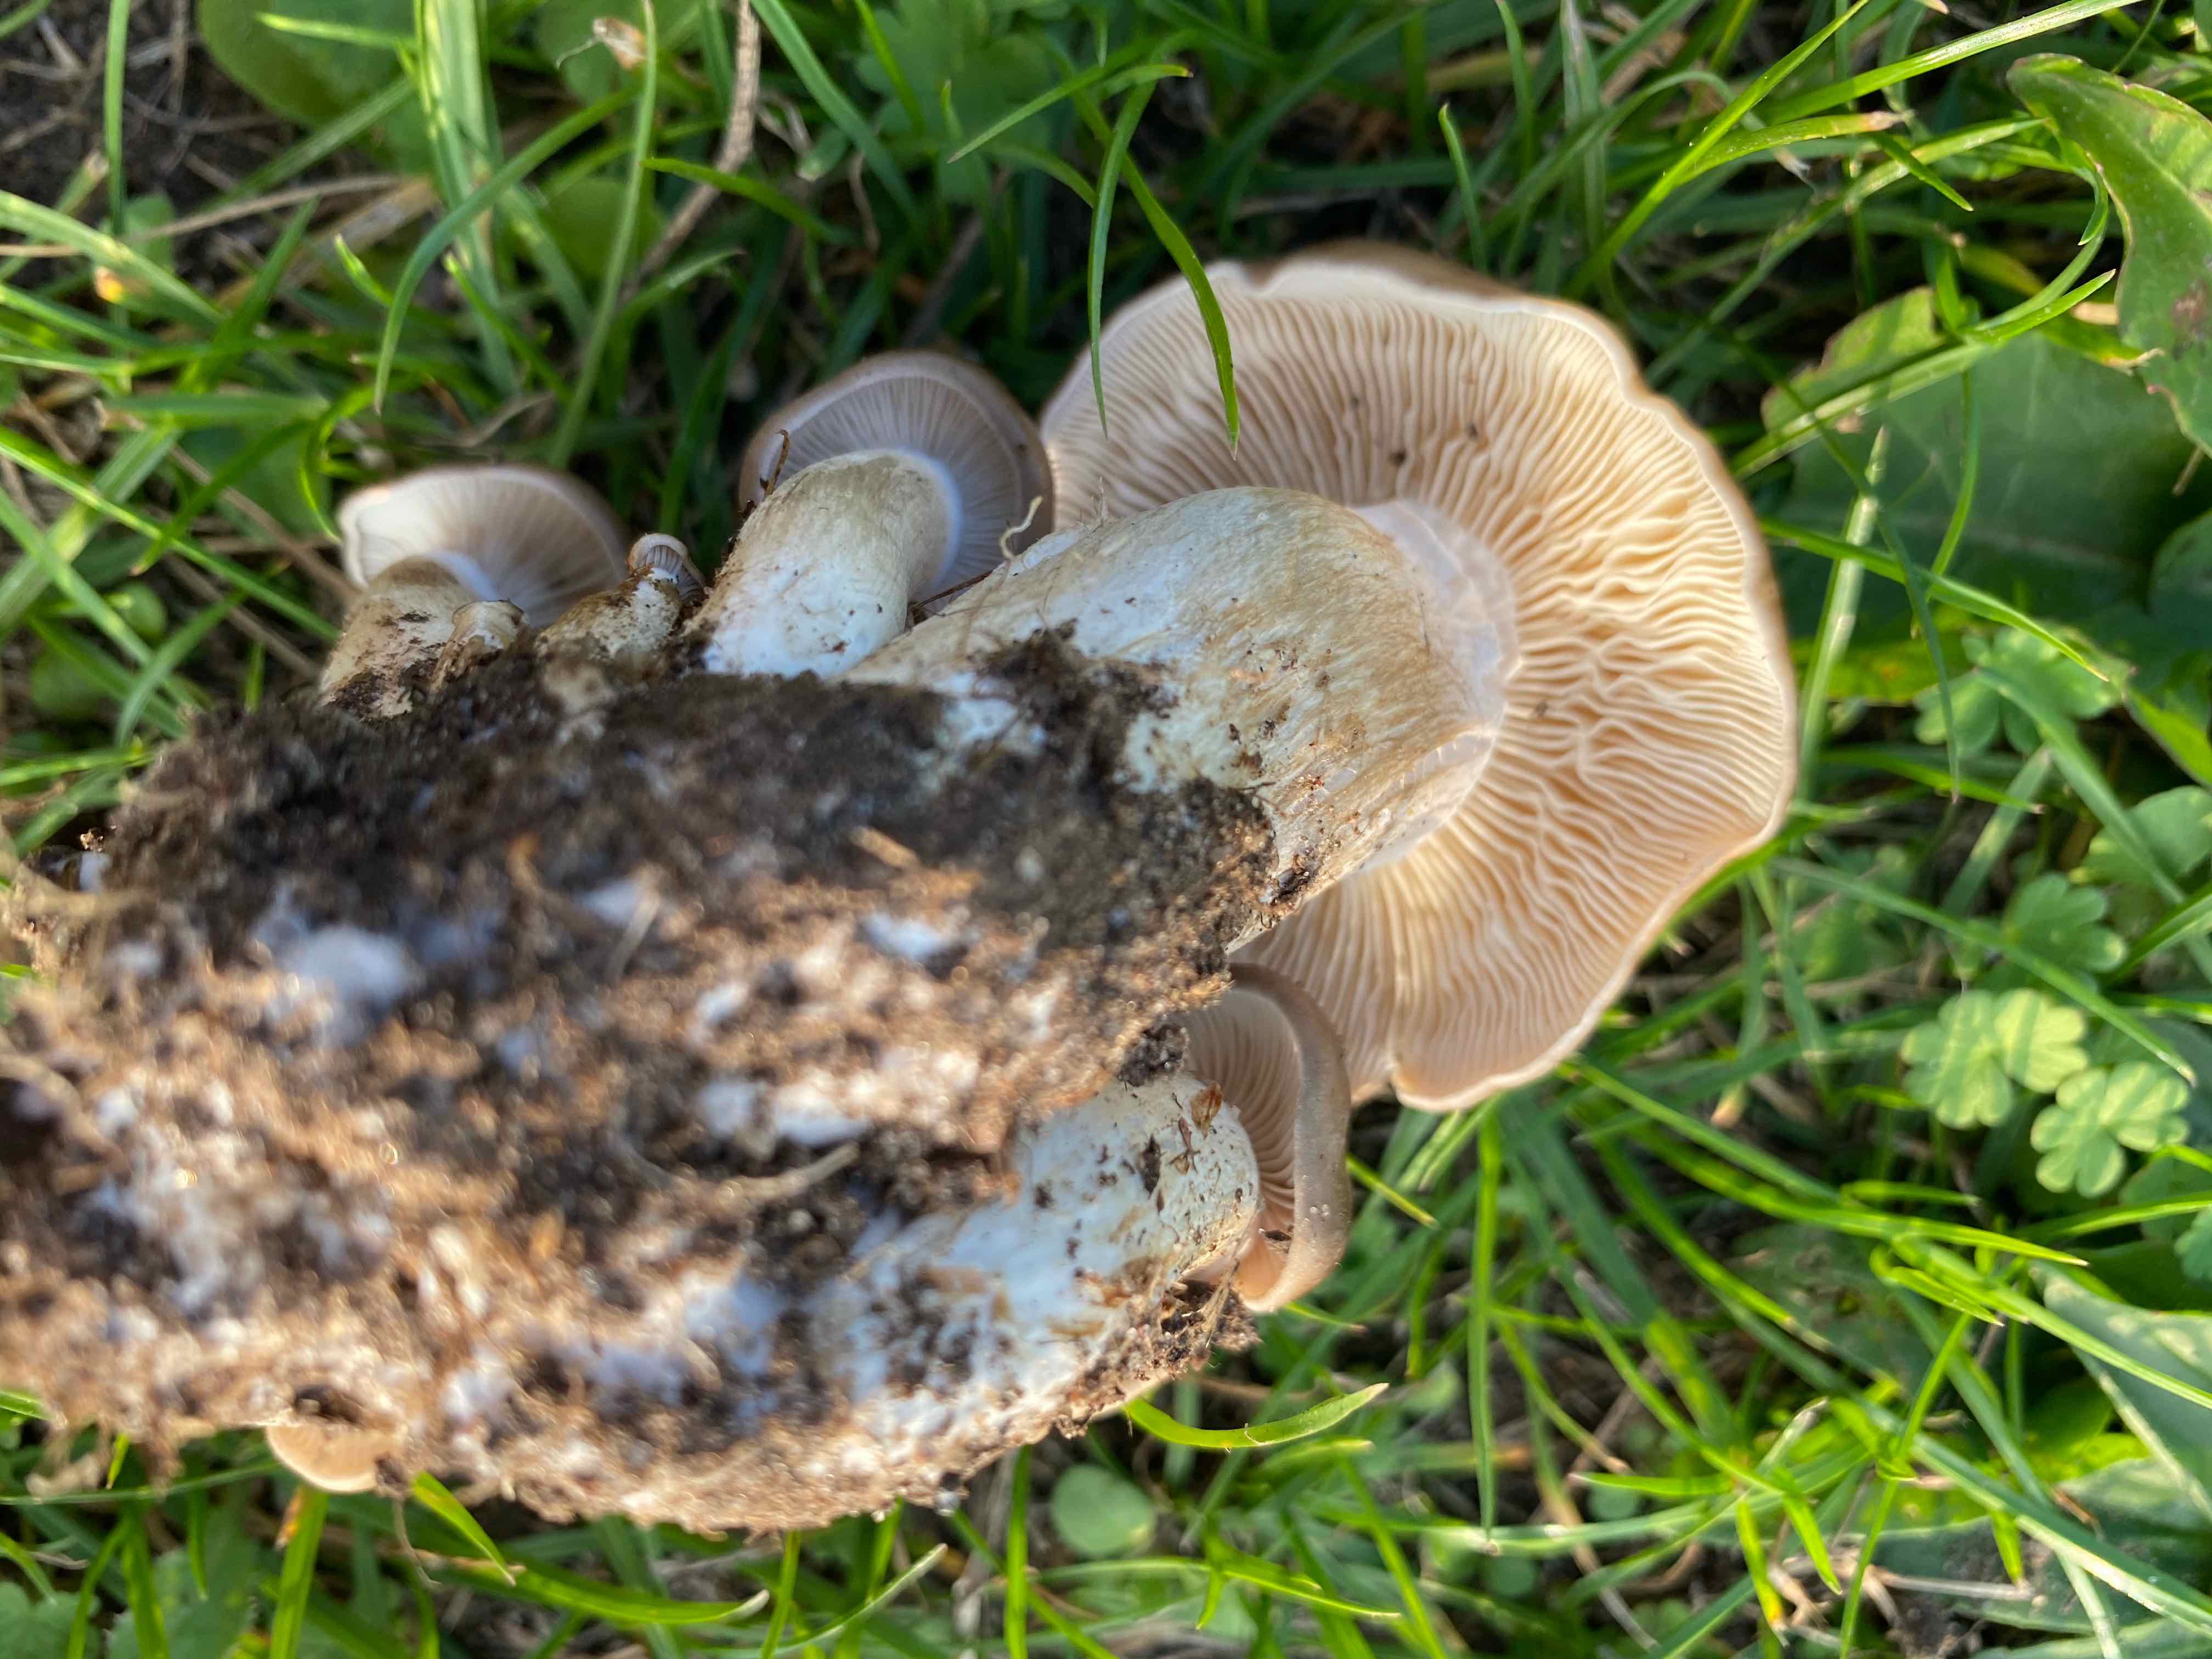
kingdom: Fungi
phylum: Basidiomycota
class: Agaricomycetes
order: Agaricales
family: Lyophyllaceae
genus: Lyophyllum
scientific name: Lyophyllum
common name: gråblad
